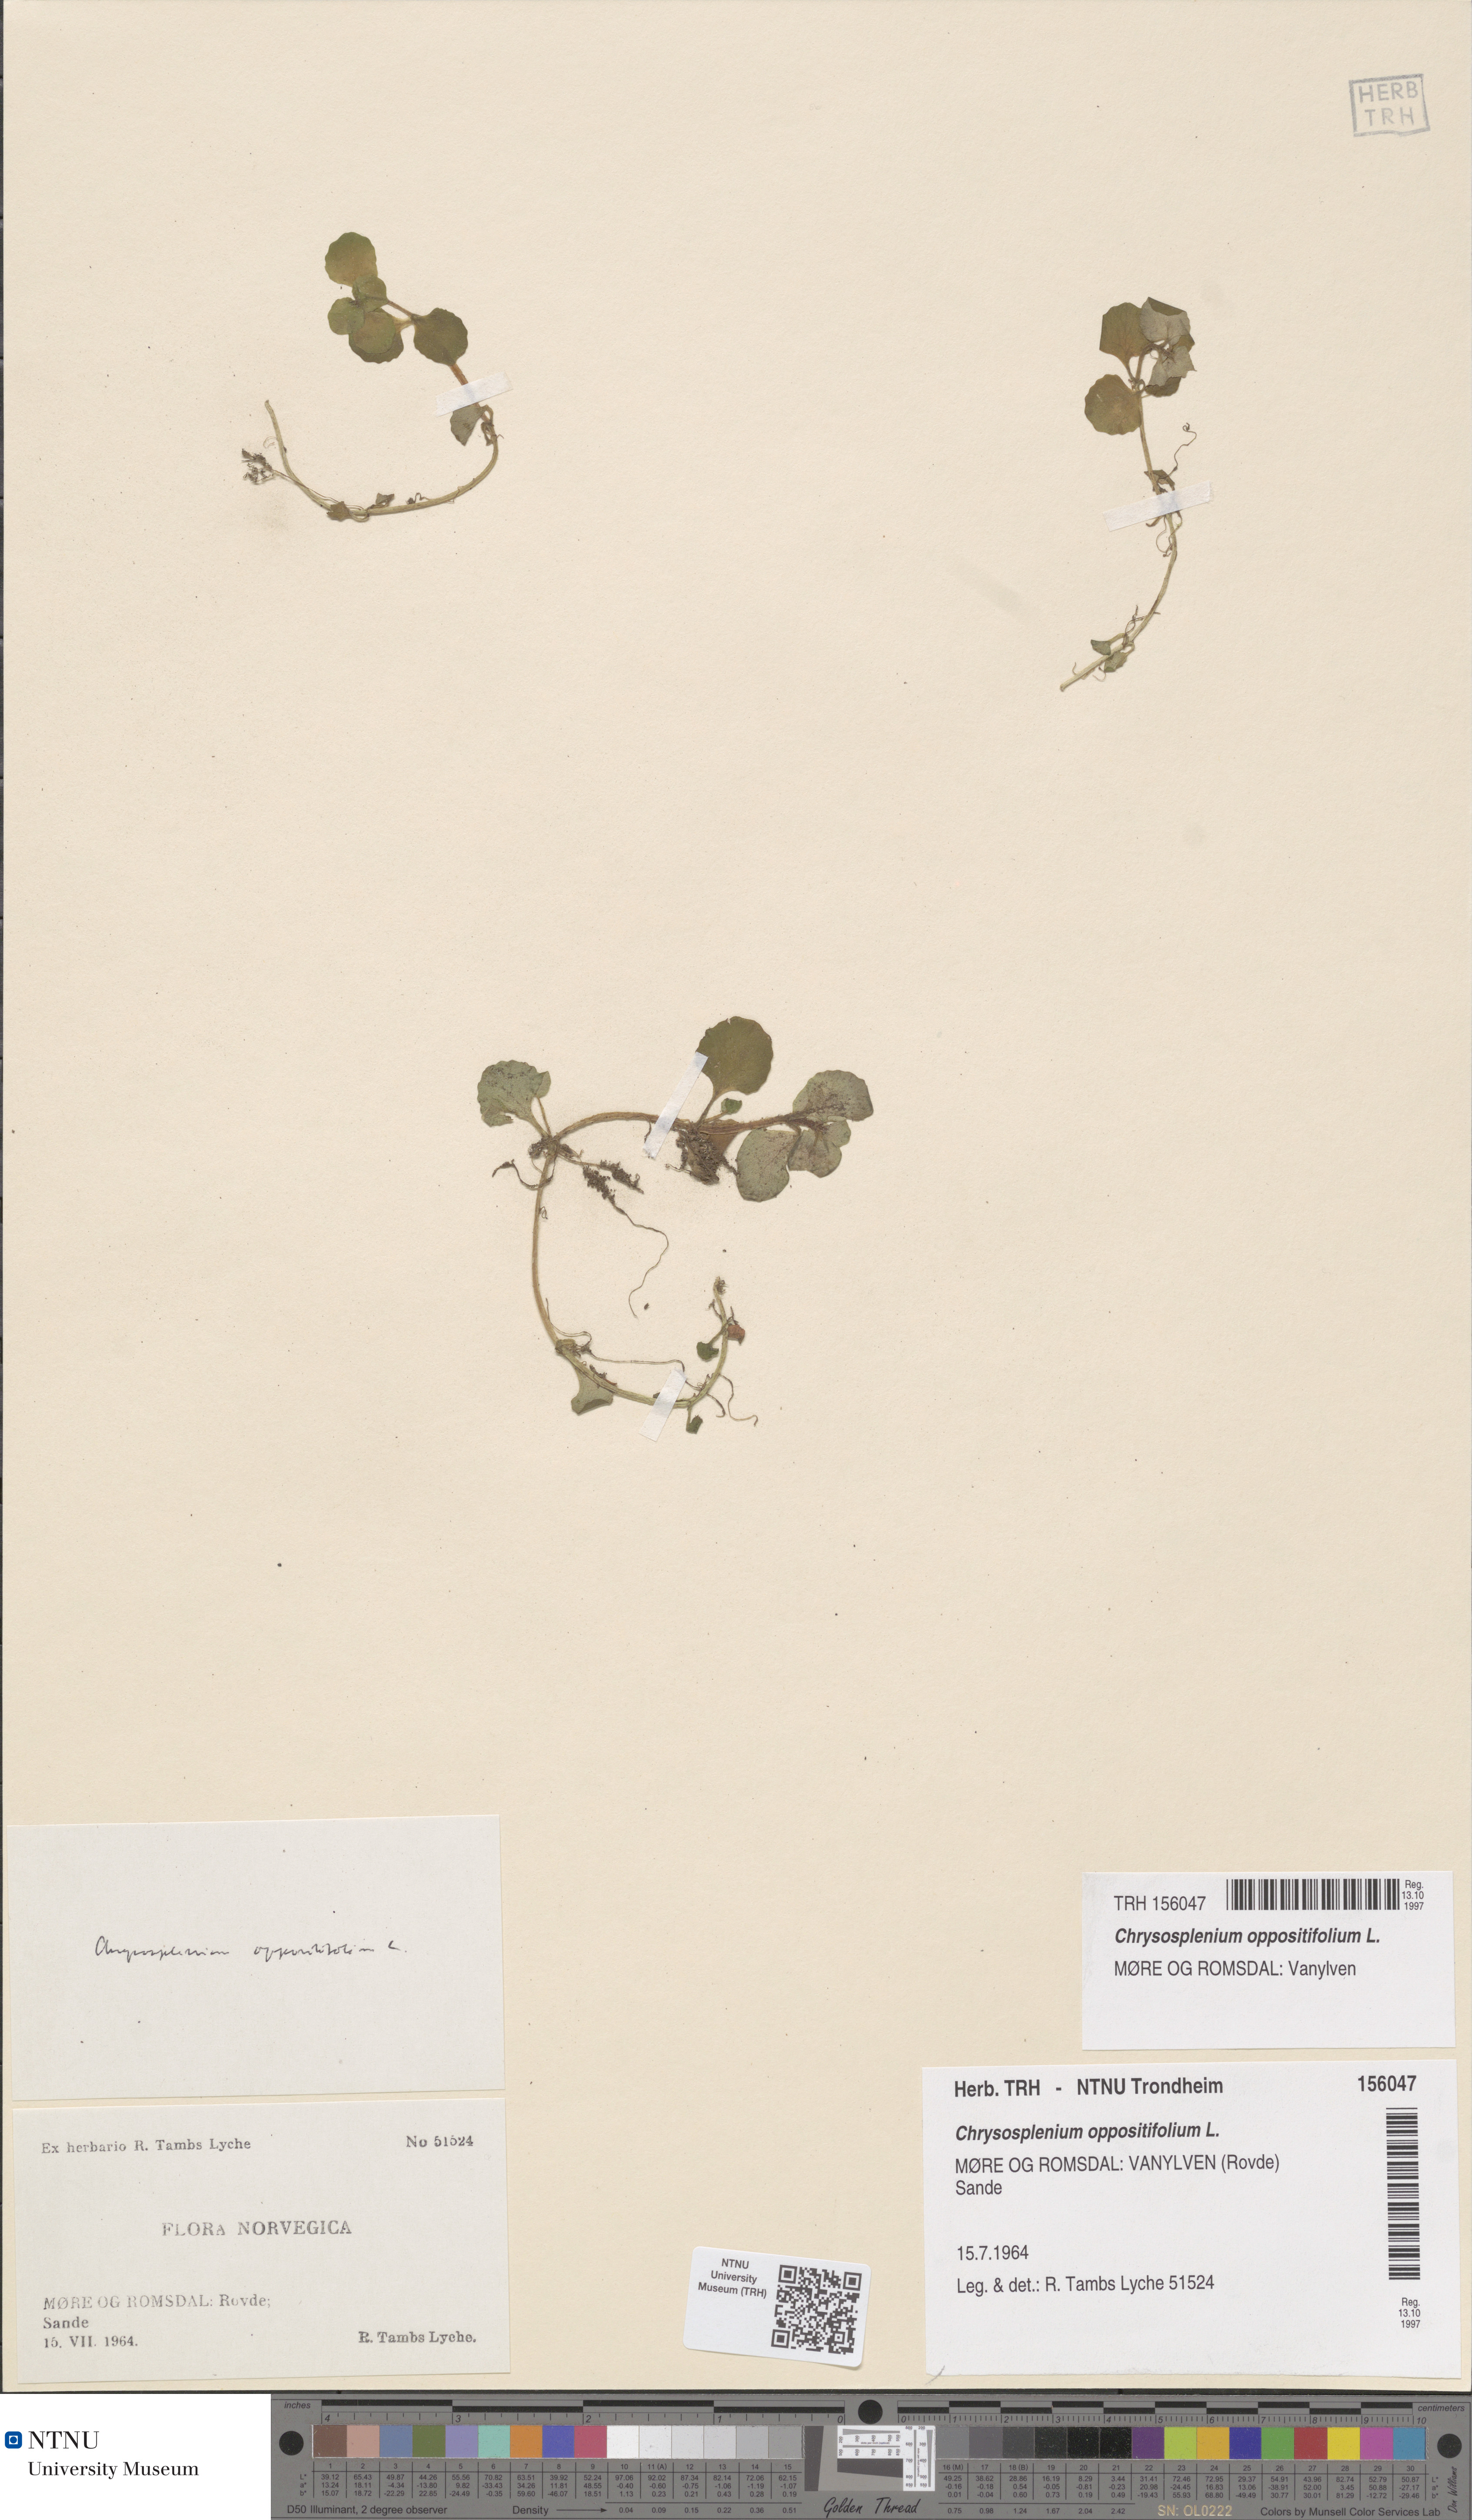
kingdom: Plantae
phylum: Tracheophyta
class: Magnoliopsida
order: Saxifragales
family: Saxifragaceae
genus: Chrysosplenium
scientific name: Chrysosplenium oppositifolium
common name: Opposite-leaved golden-saxifrage
